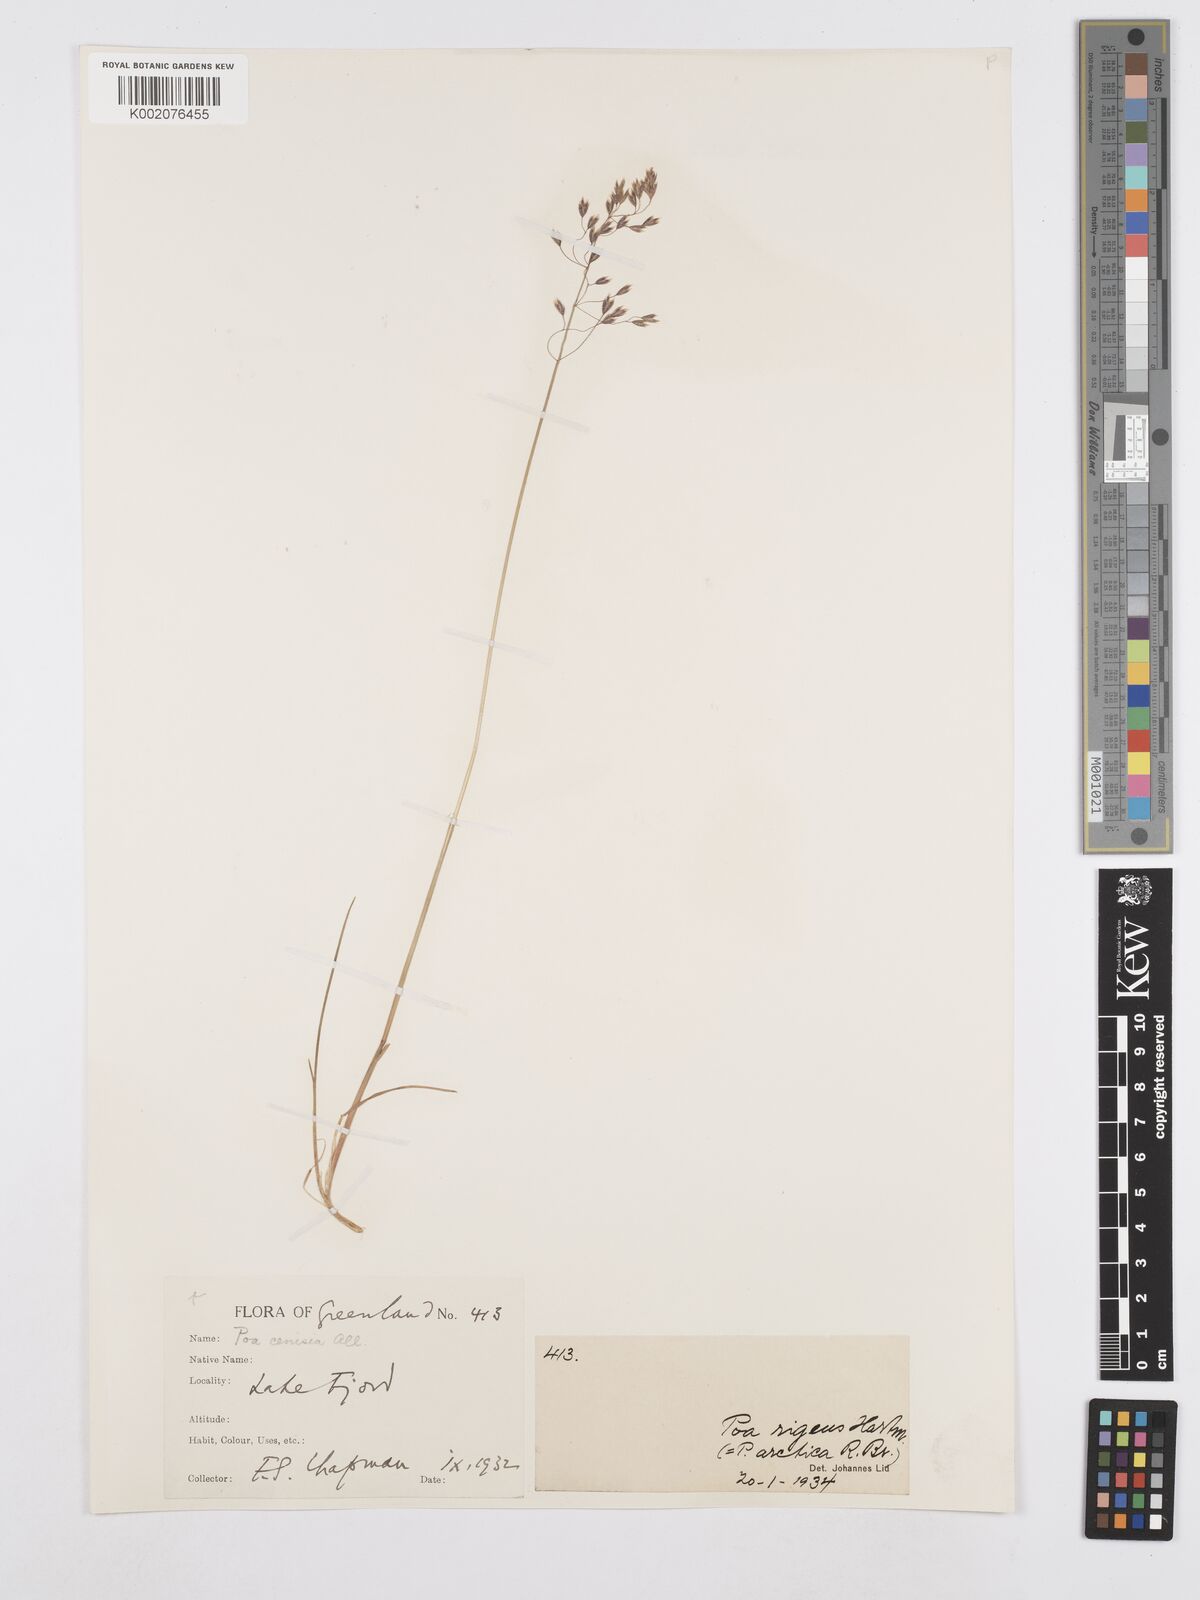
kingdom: Plantae
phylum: Tracheophyta
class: Liliopsida
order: Poales
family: Poaceae
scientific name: Poaceae
